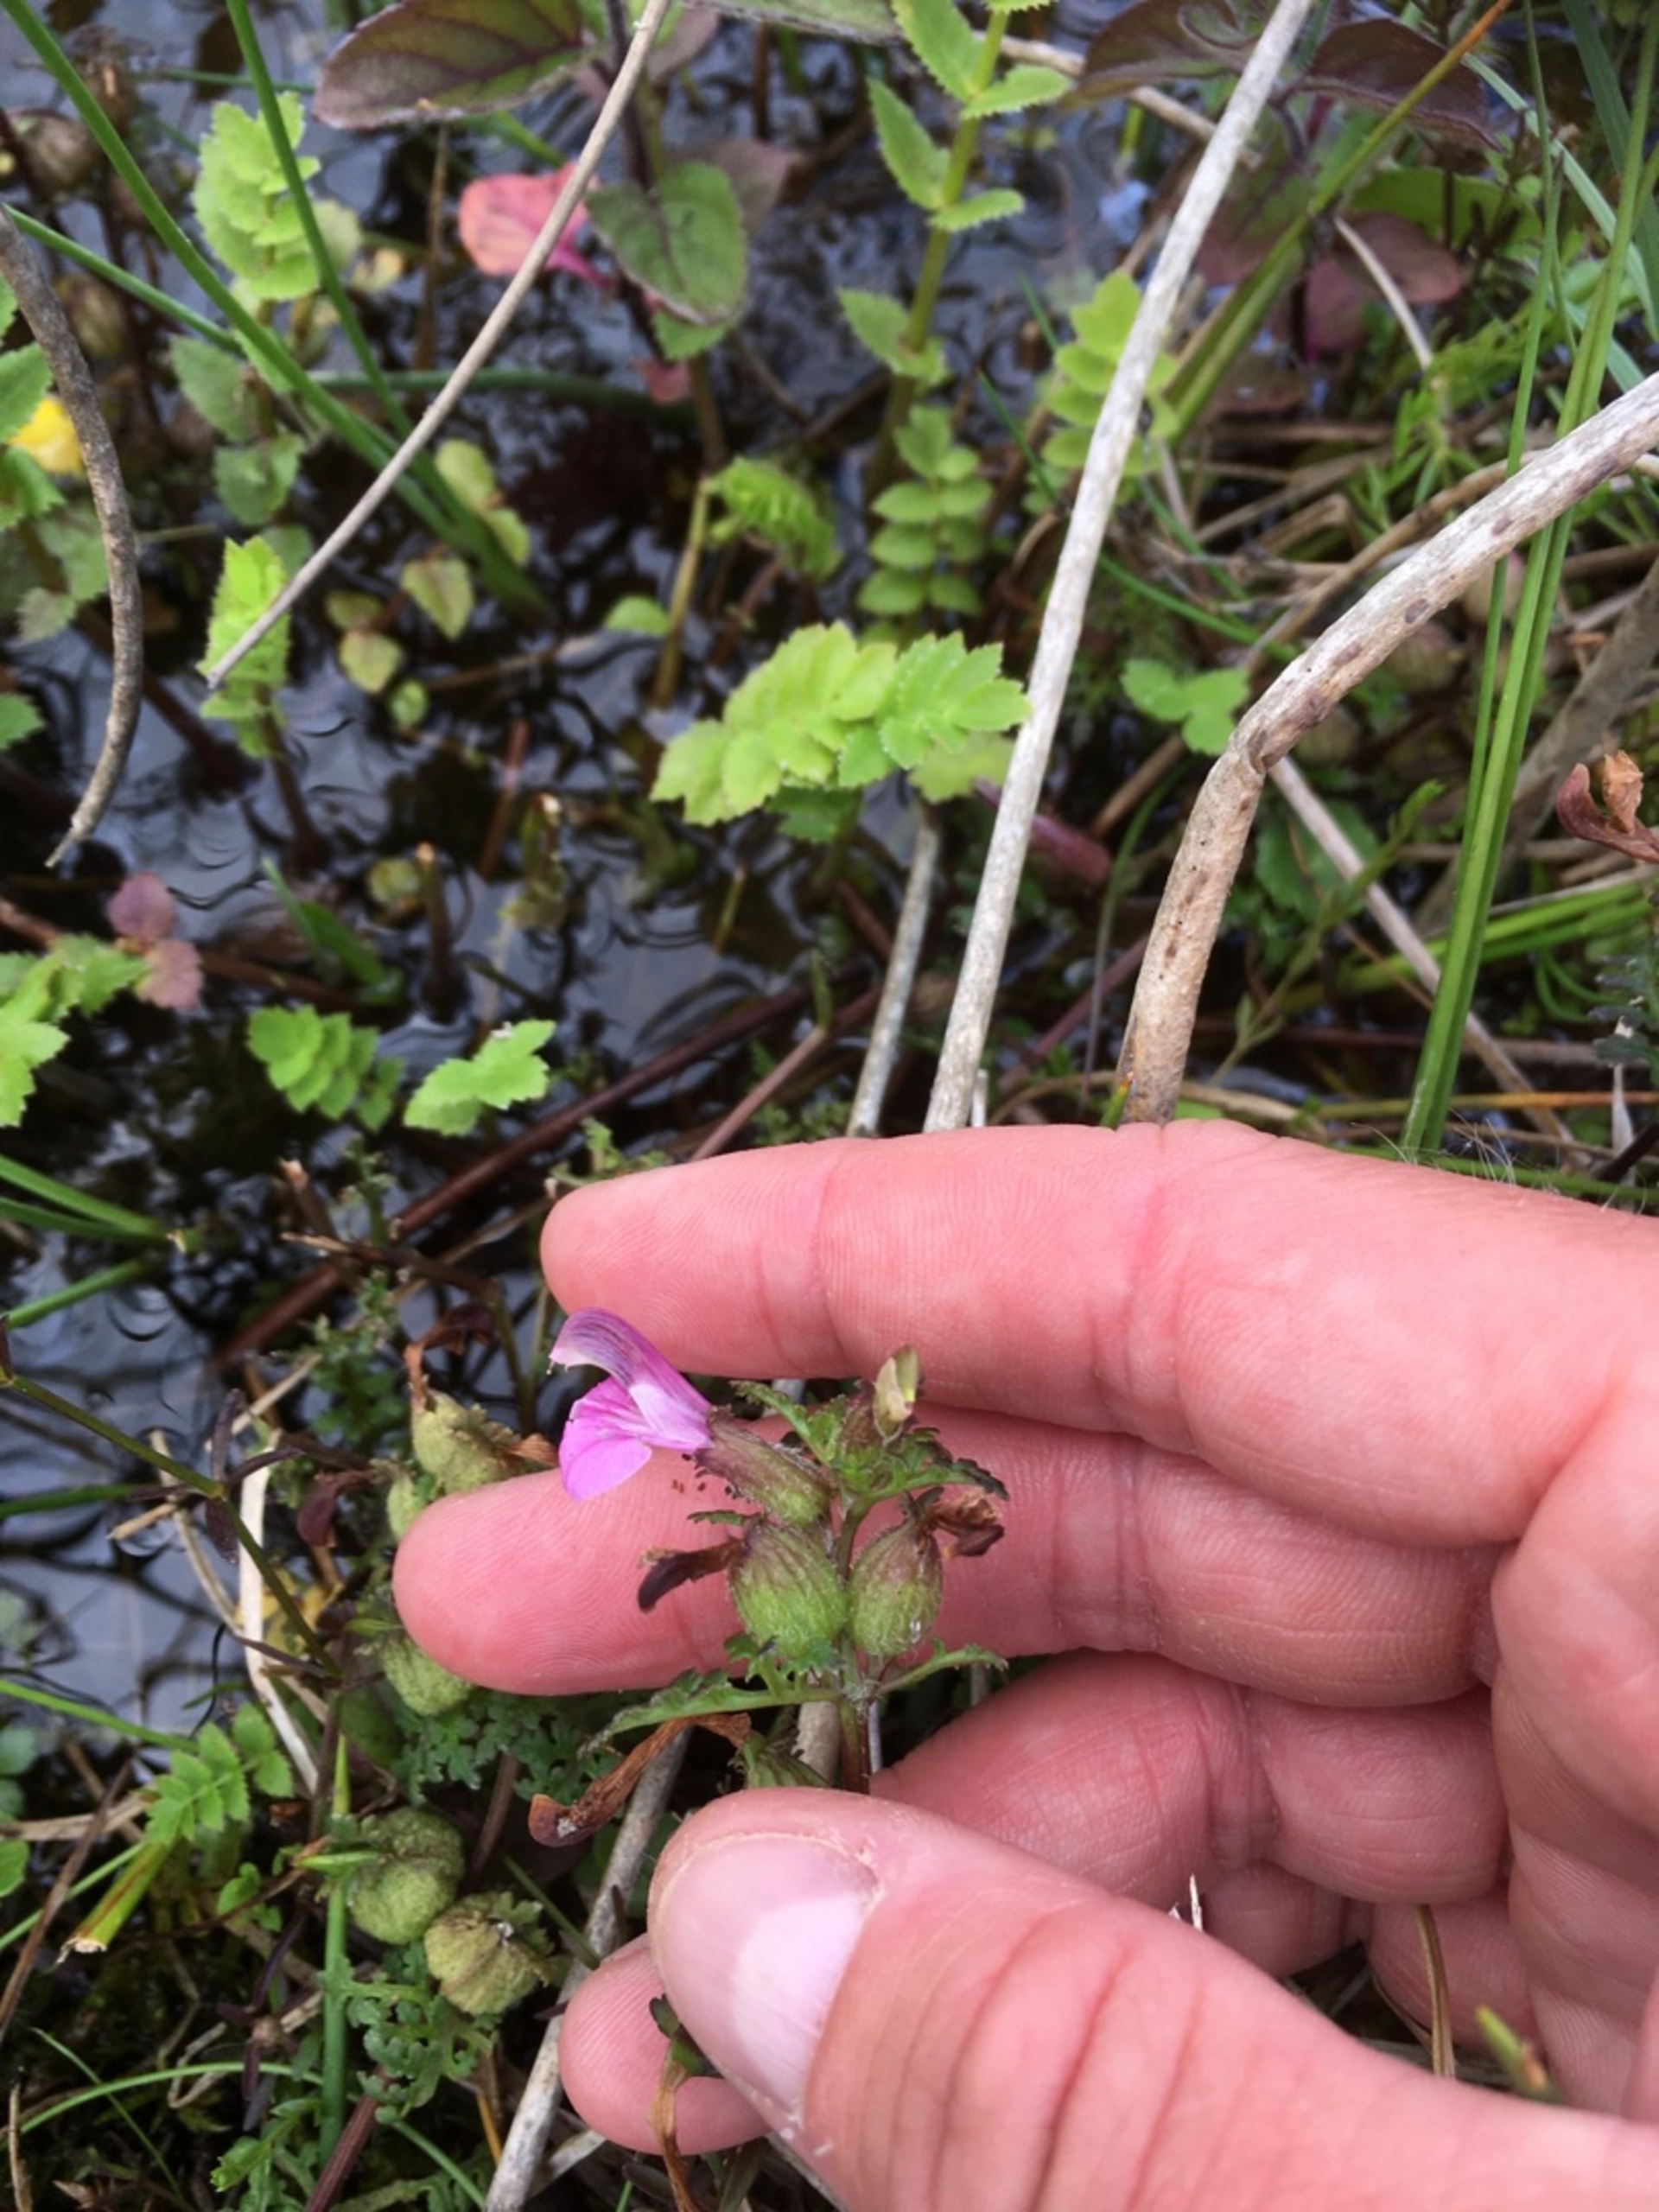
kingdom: Plantae
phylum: Tracheophyta
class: Magnoliopsida
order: Lamiales
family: Orobanchaceae
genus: Pedicularis
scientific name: Pedicularis palustris
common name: Eng-troldurt
